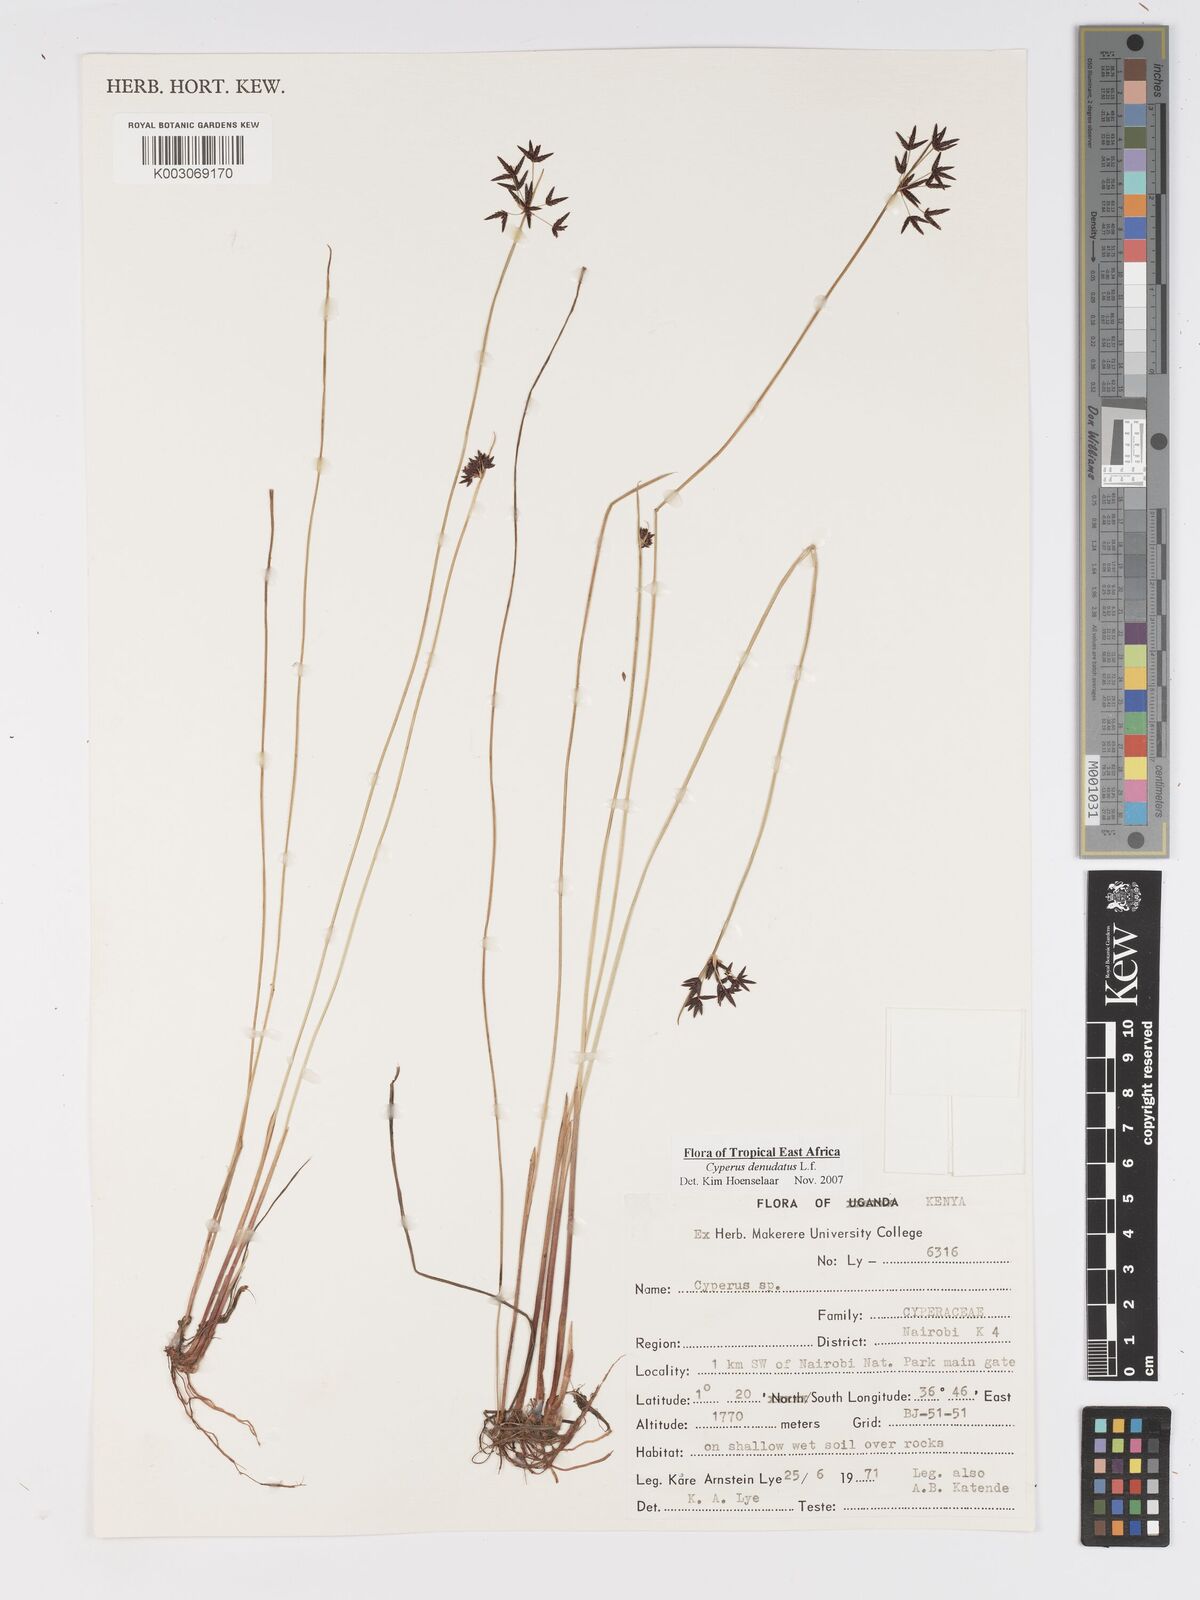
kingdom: Plantae
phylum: Tracheophyta
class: Liliopsida
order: Poales
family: Cyperaceae
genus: Cyperus
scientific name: Cyperus platycaulis
